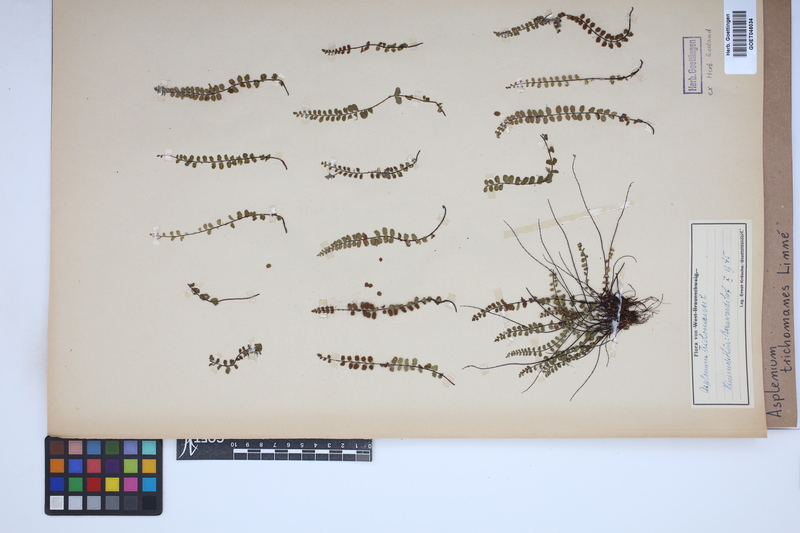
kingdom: Plantae
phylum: Tracheophyta
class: Polypodiopsida
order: Polypodiales
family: Aspleniaceae
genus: Asplenium
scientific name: Asplenium trichomanes
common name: Maidenhair spleenwort
